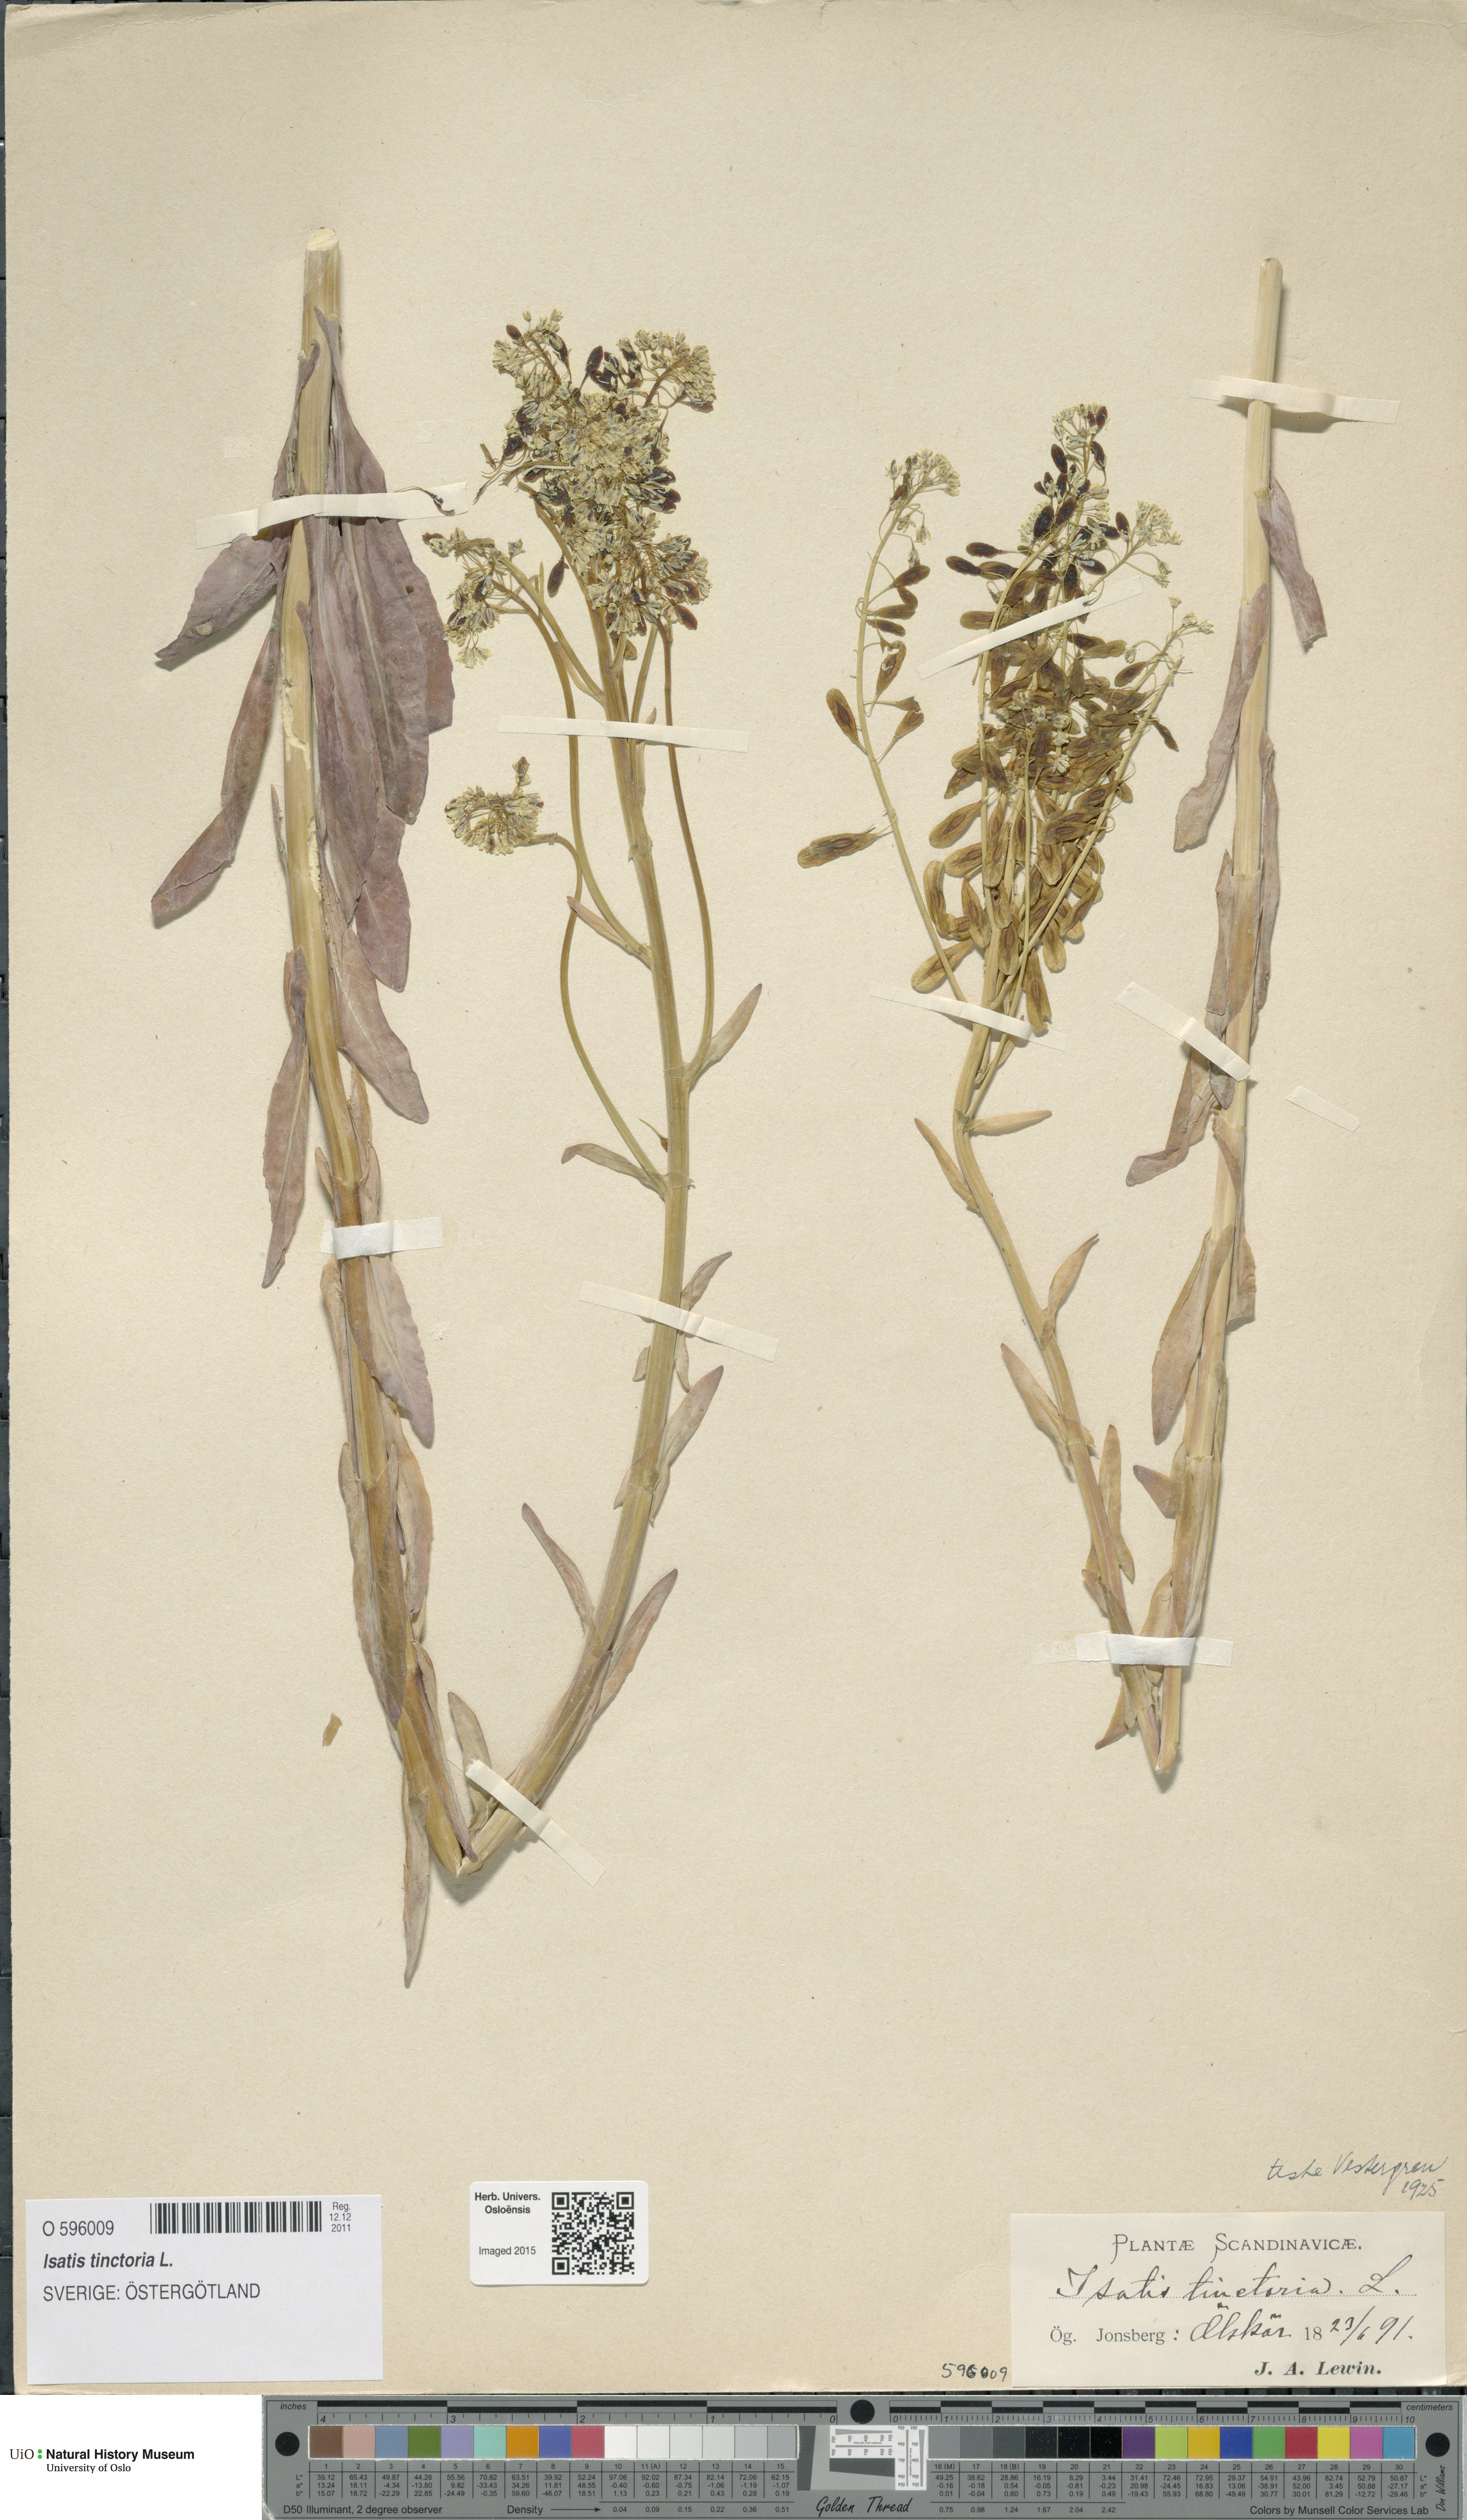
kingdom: Plantae
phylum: Tracheophyta
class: Magnoliopsida
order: Brassicales
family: Brassicaceae
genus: Isatis
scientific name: Isatis tinctoria
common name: Woad
